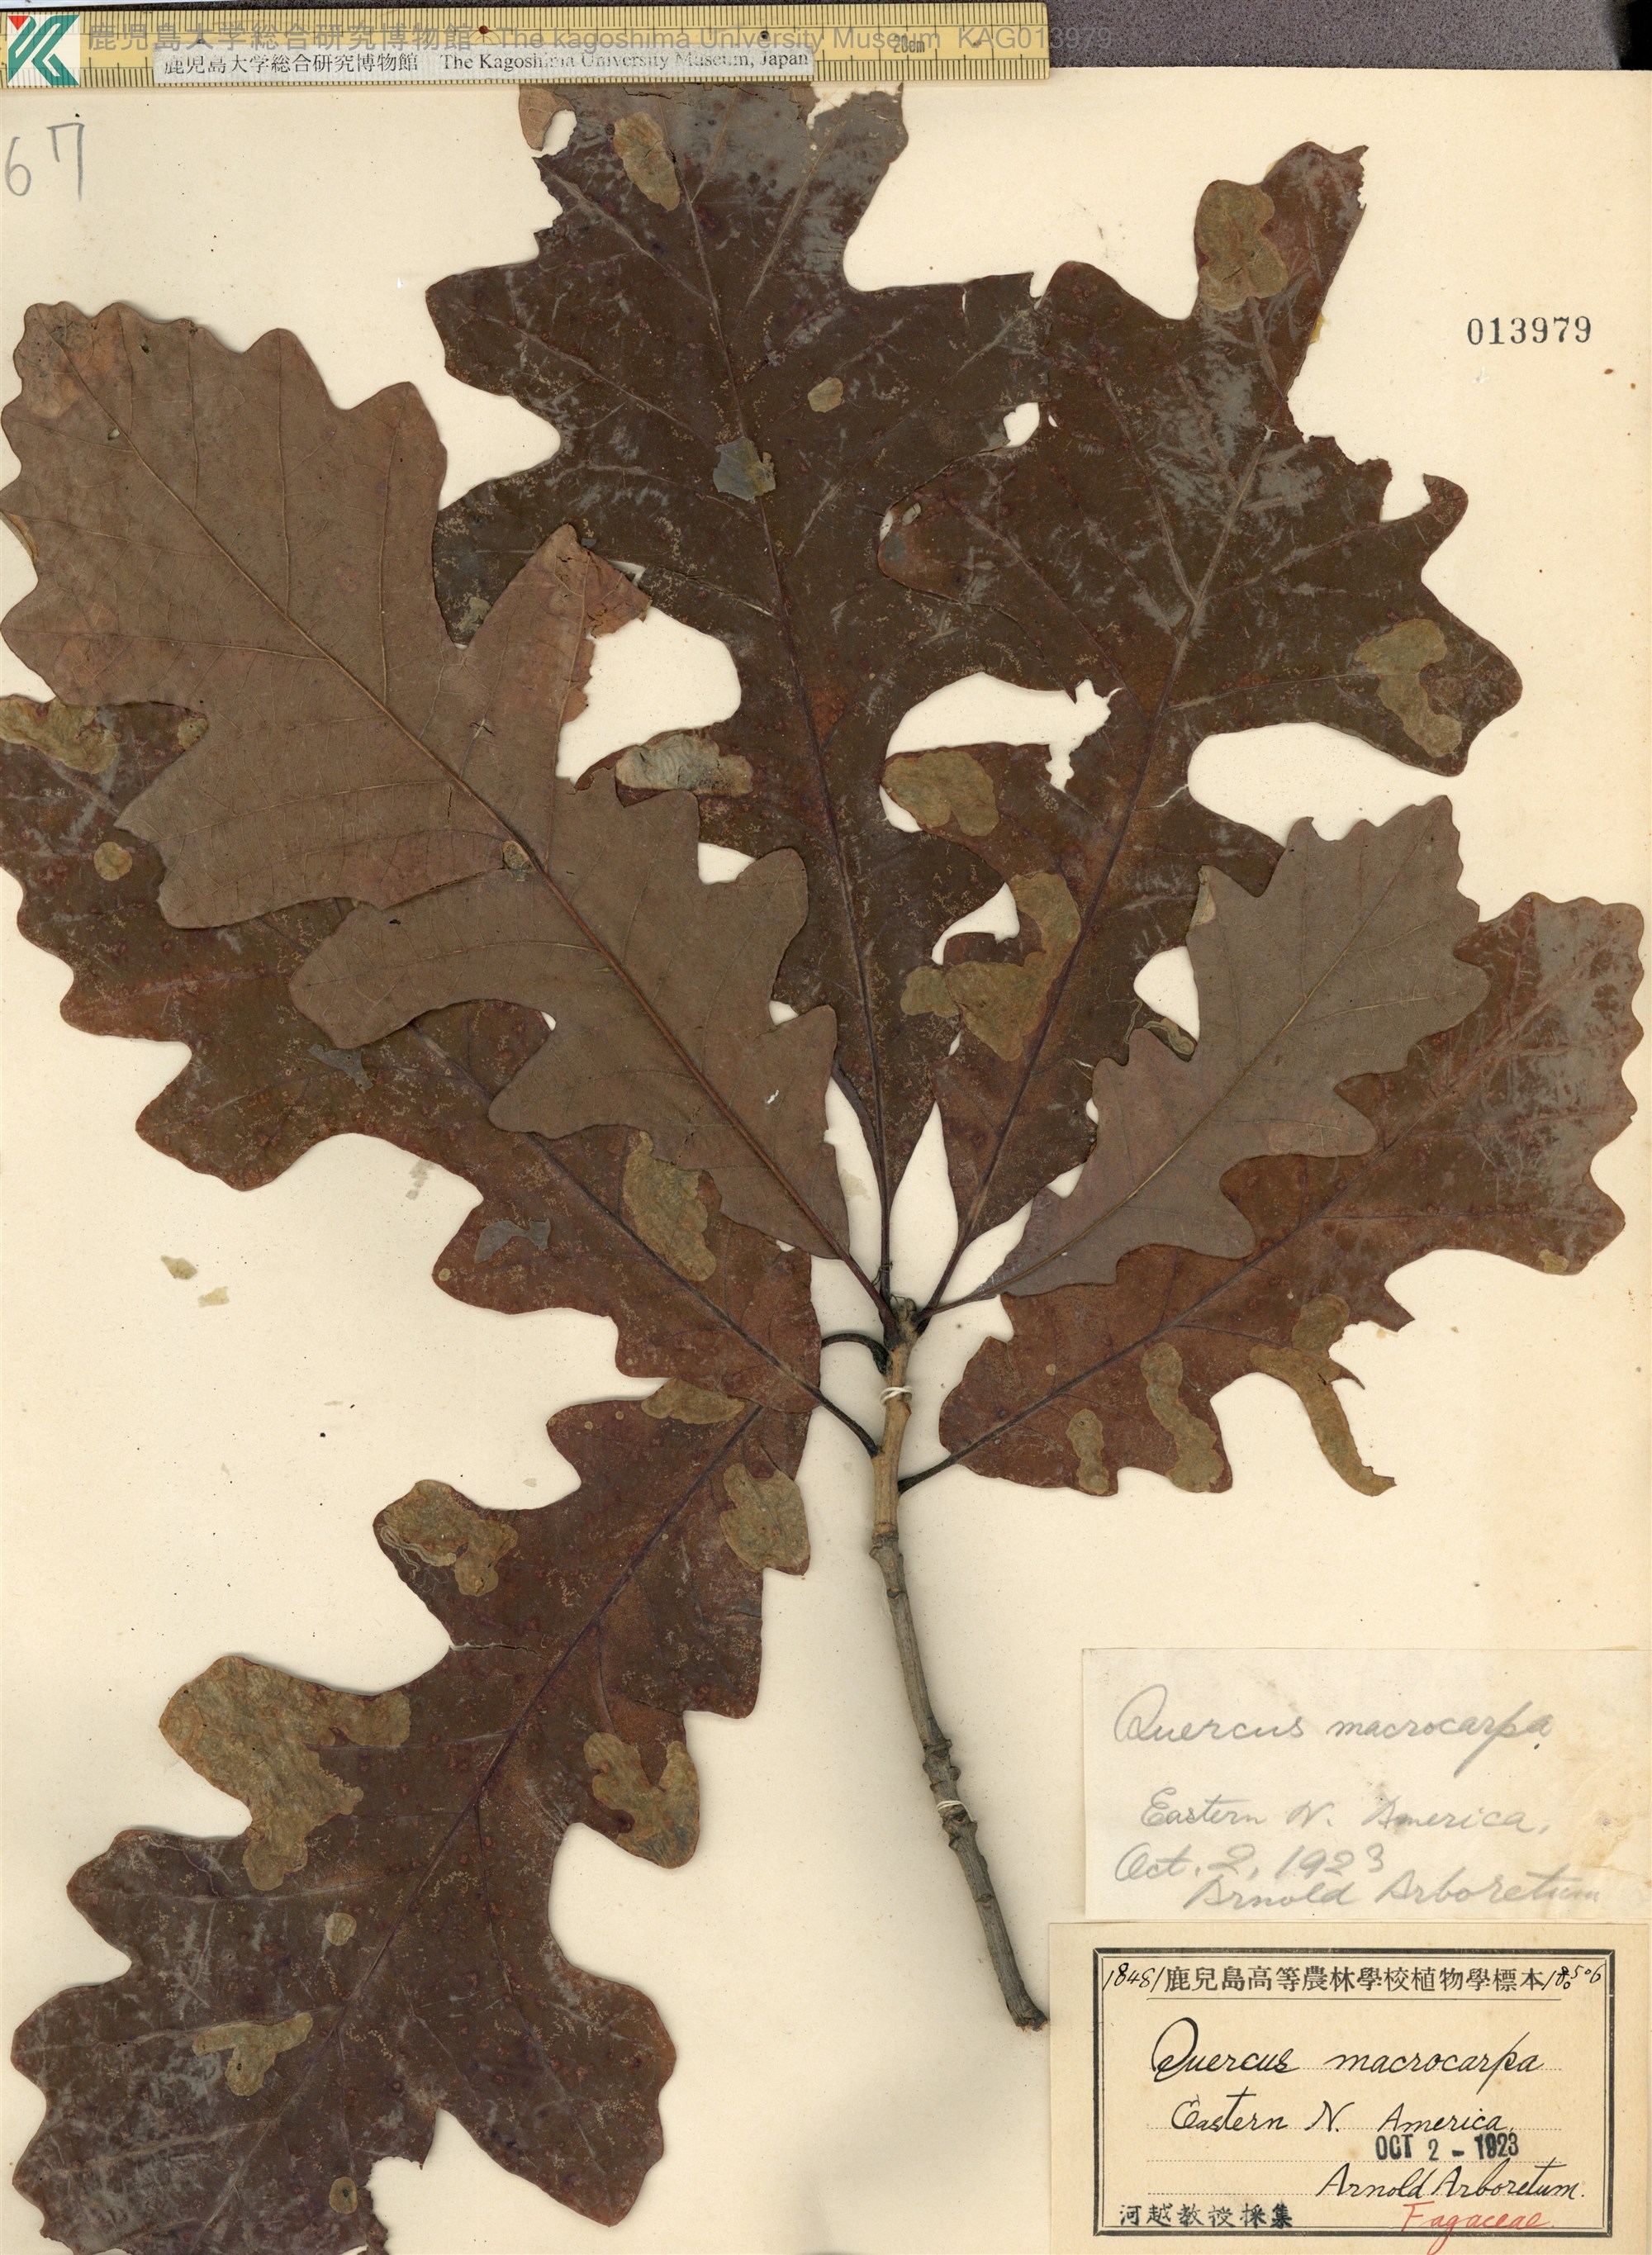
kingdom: Plantae
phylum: Tracheophyta
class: Magnoliopsida
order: Fagales
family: Fagaceae
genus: Quercus
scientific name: Quercus macrocarpa
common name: Bur oak
